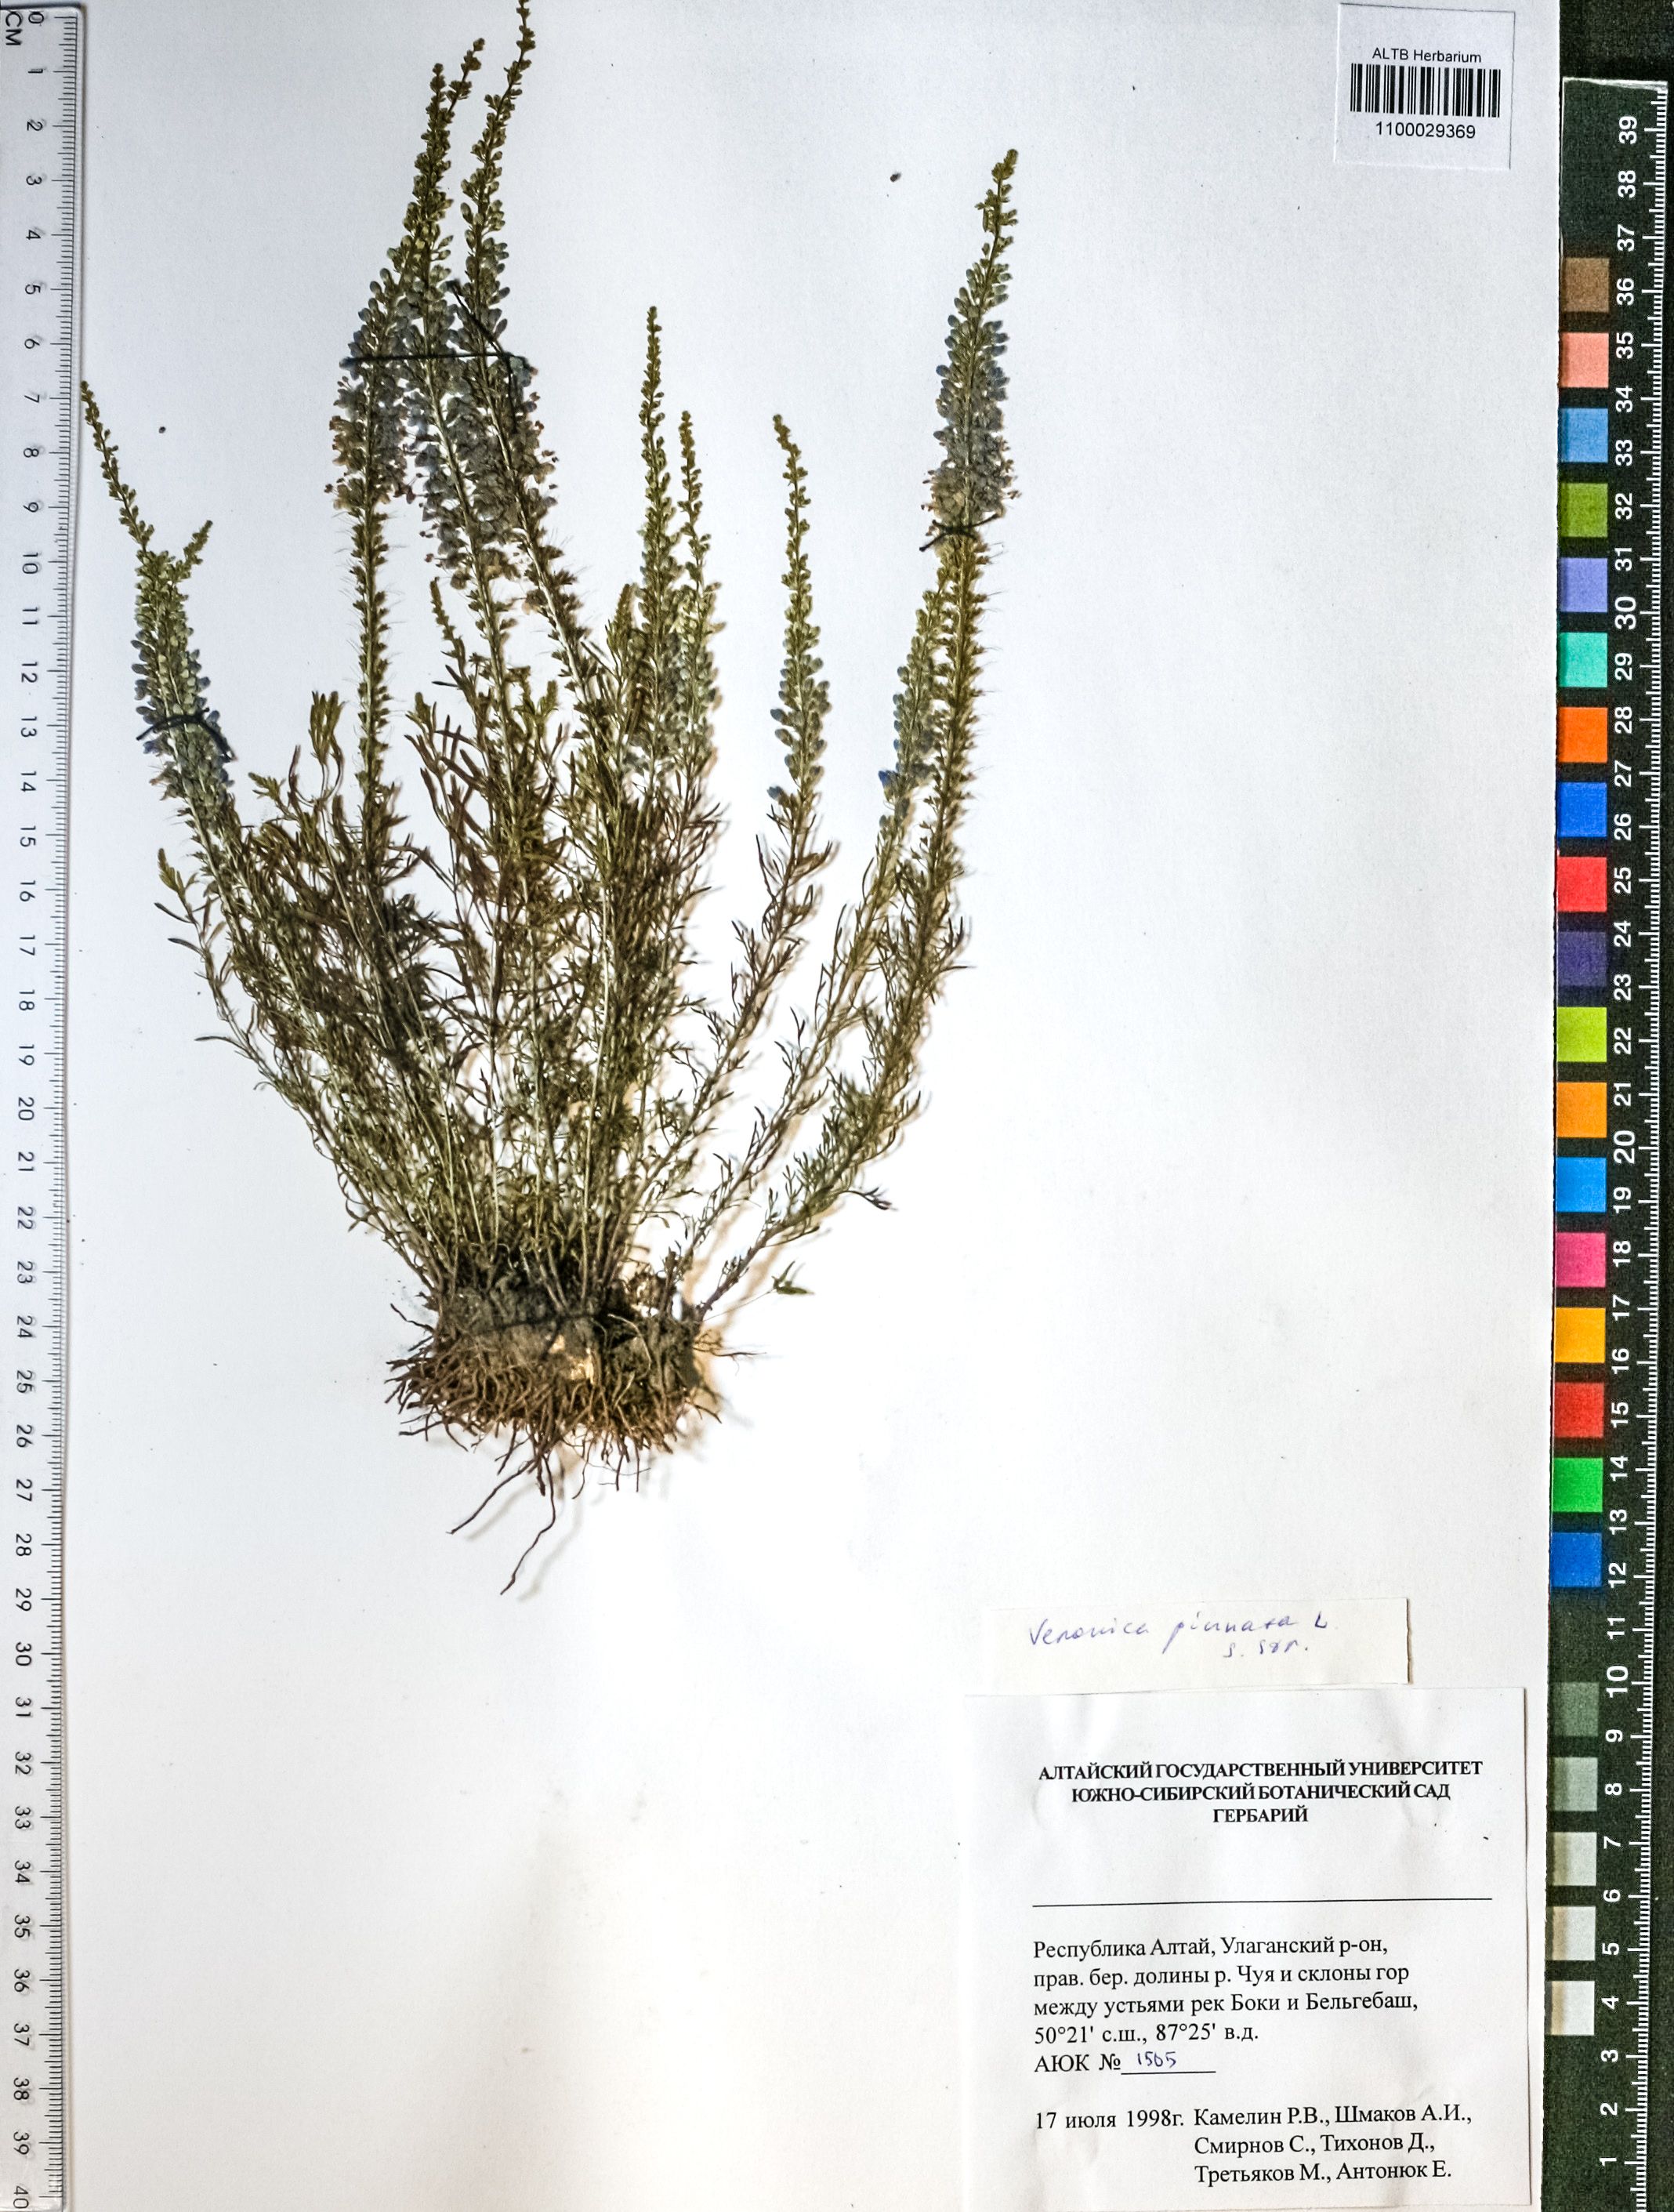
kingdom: Plantae
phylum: Tracheophyta
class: Magnoliopsida
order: Lamiales
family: Plantaginaceae
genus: Veronica
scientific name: Veronica pinnata
